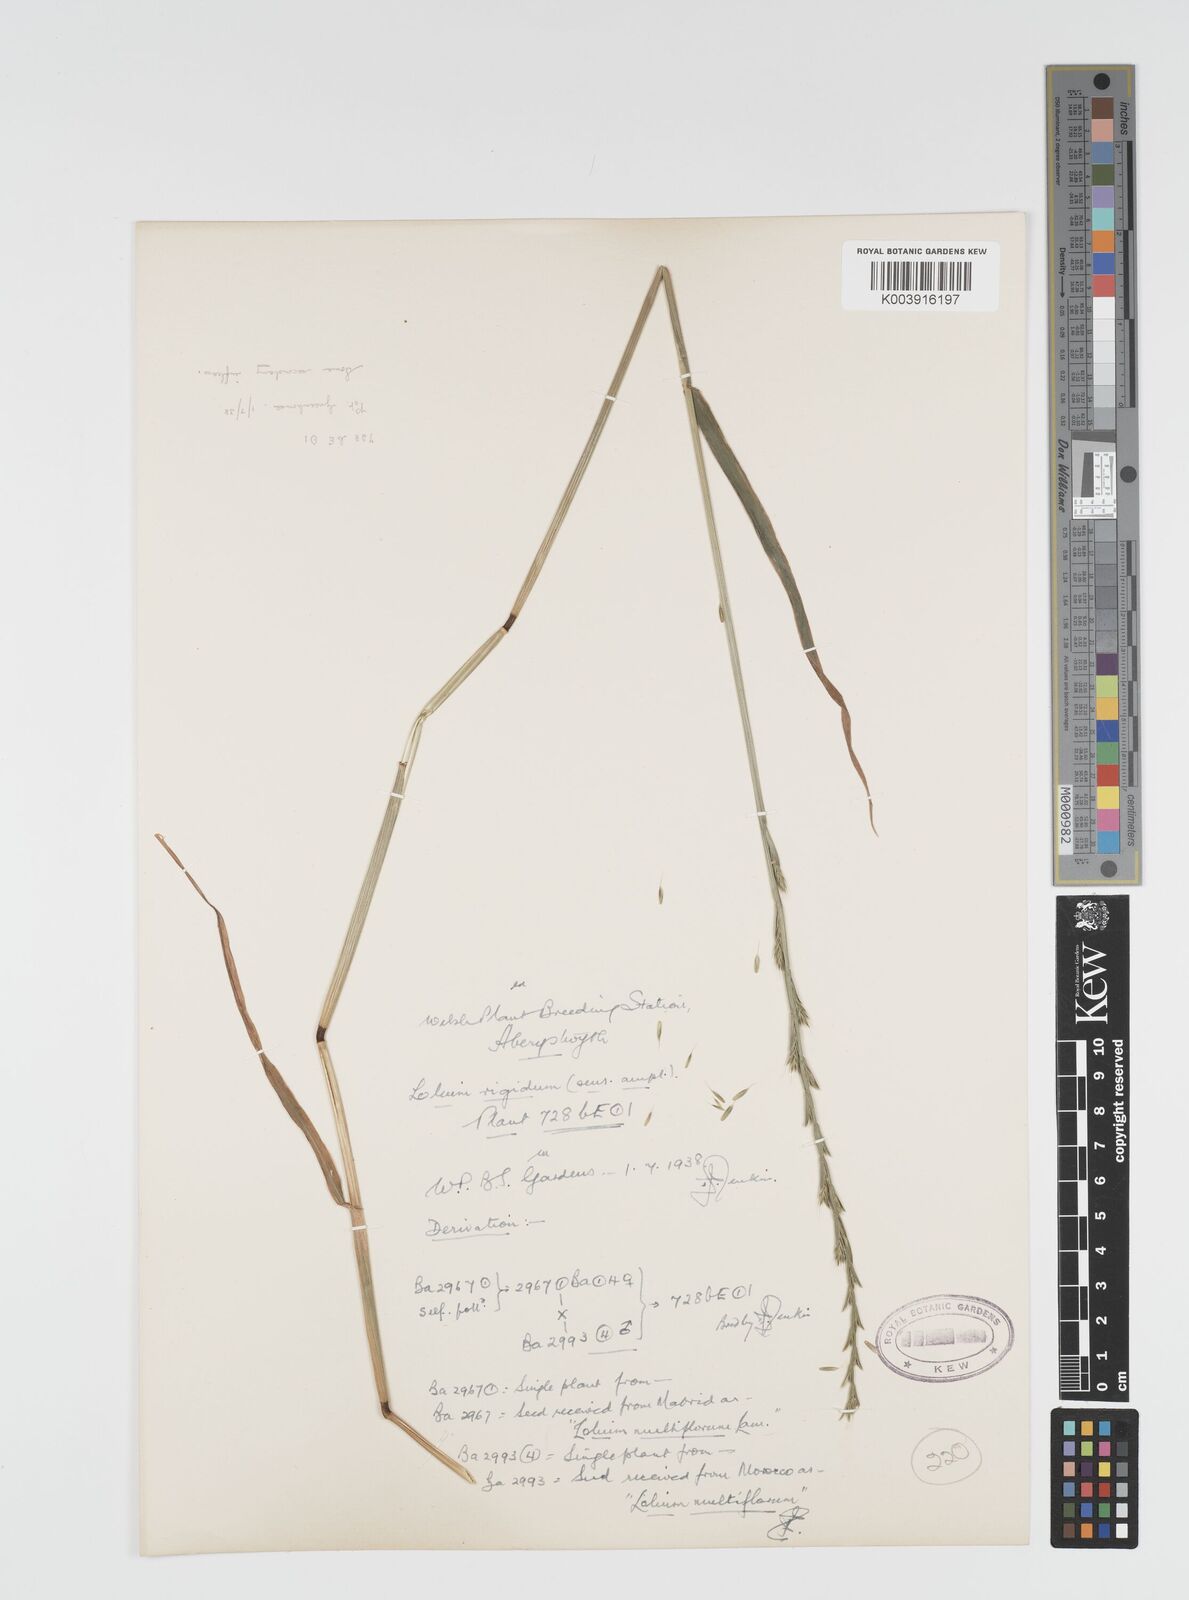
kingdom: Plantae
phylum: Tracheophyta
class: Liliopsida
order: Poales
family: Poaceae
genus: Lolium
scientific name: Lolium rigidum
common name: Wimmera ryegrass
